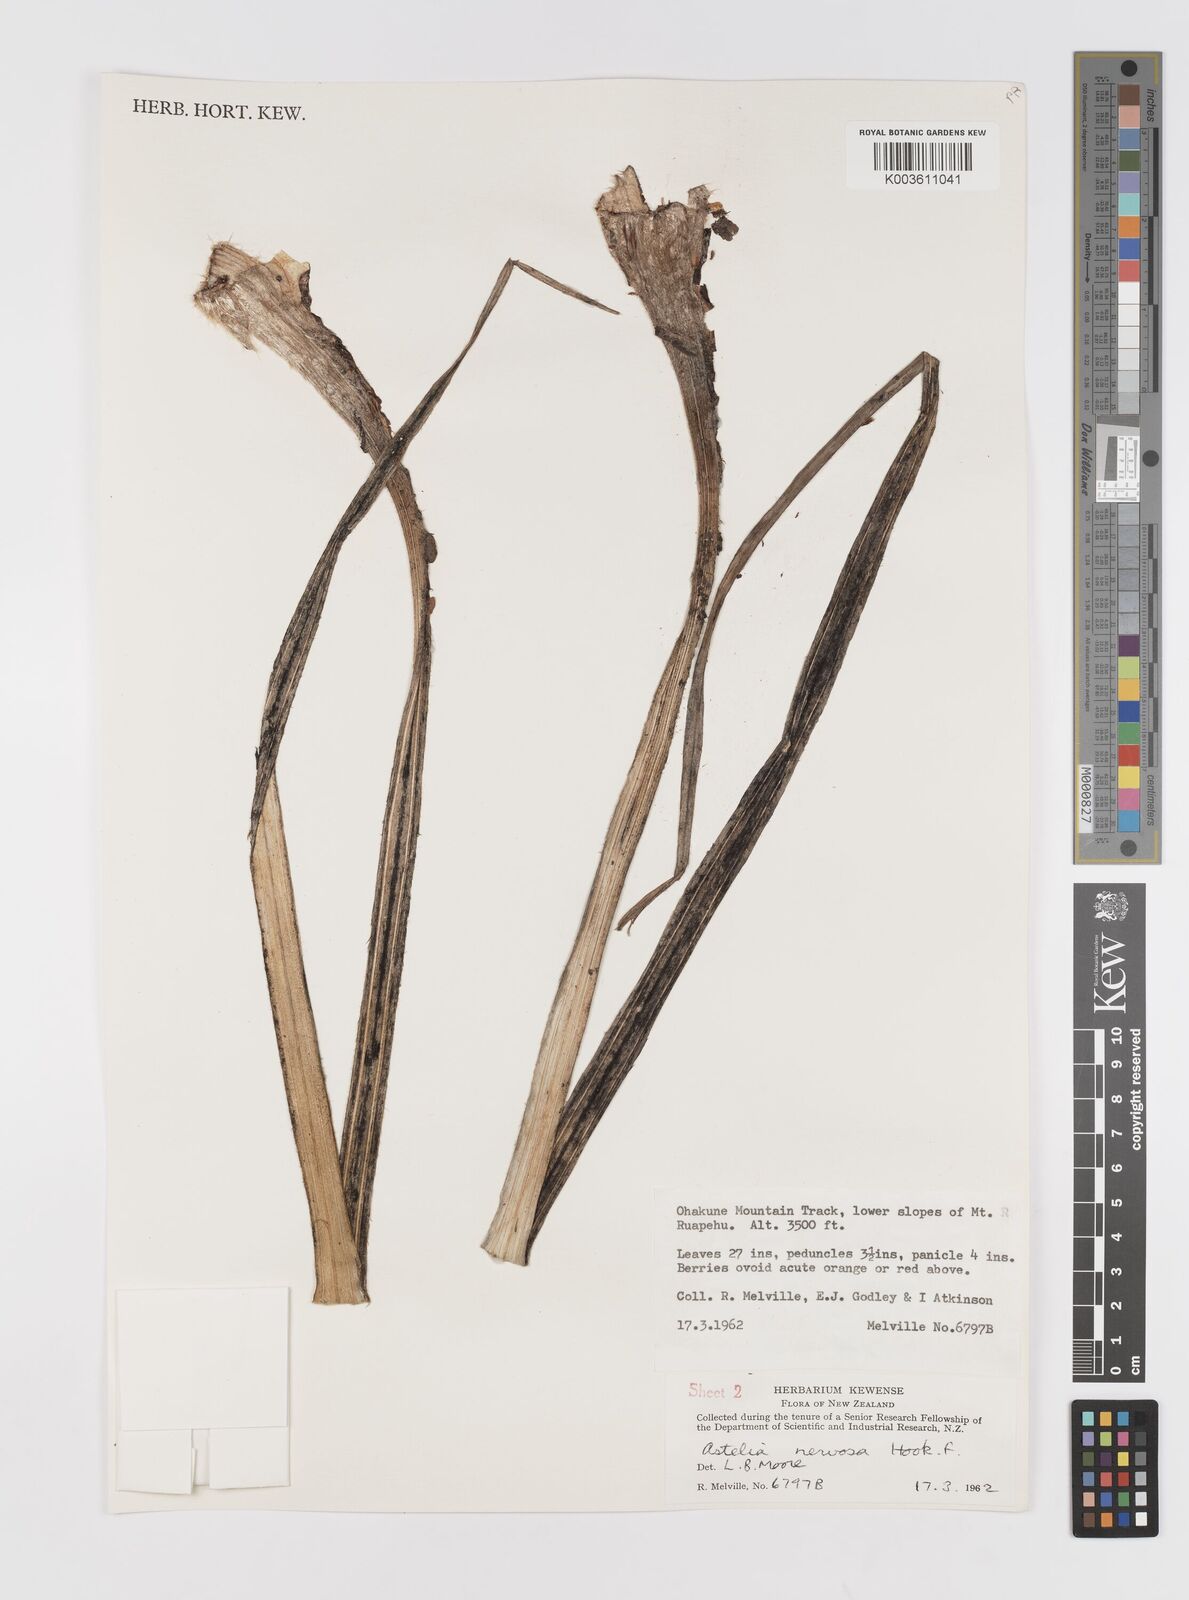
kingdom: Plantae
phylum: Tracheophyta
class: Liliopsida
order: Asparagales
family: Asteliaceae
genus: Astelia
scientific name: Astelia nervosa
